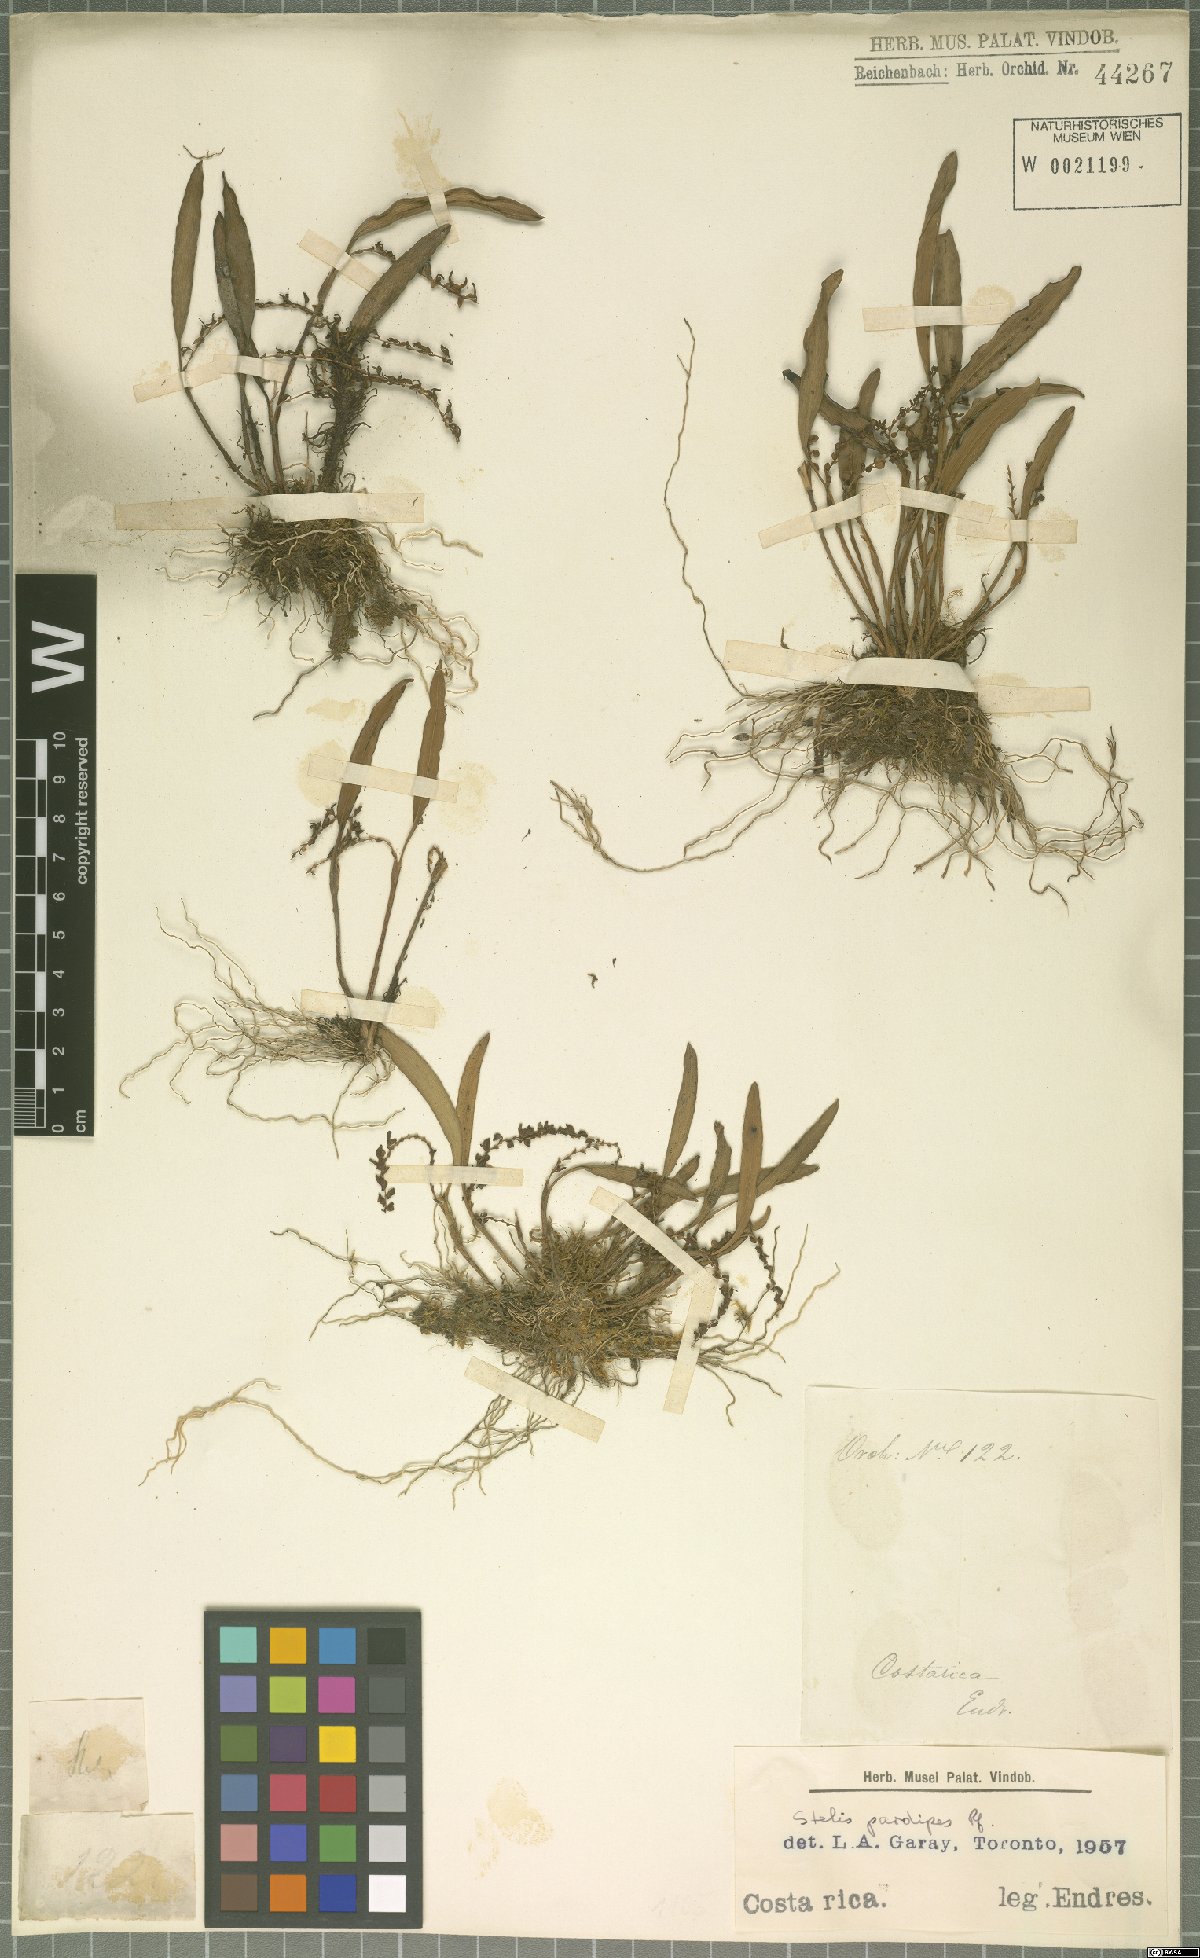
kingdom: Plantae
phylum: Tracheophyta
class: Liliopsida
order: Asparagales
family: Orchidaceae
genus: Stelis
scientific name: Stelis pardipes
